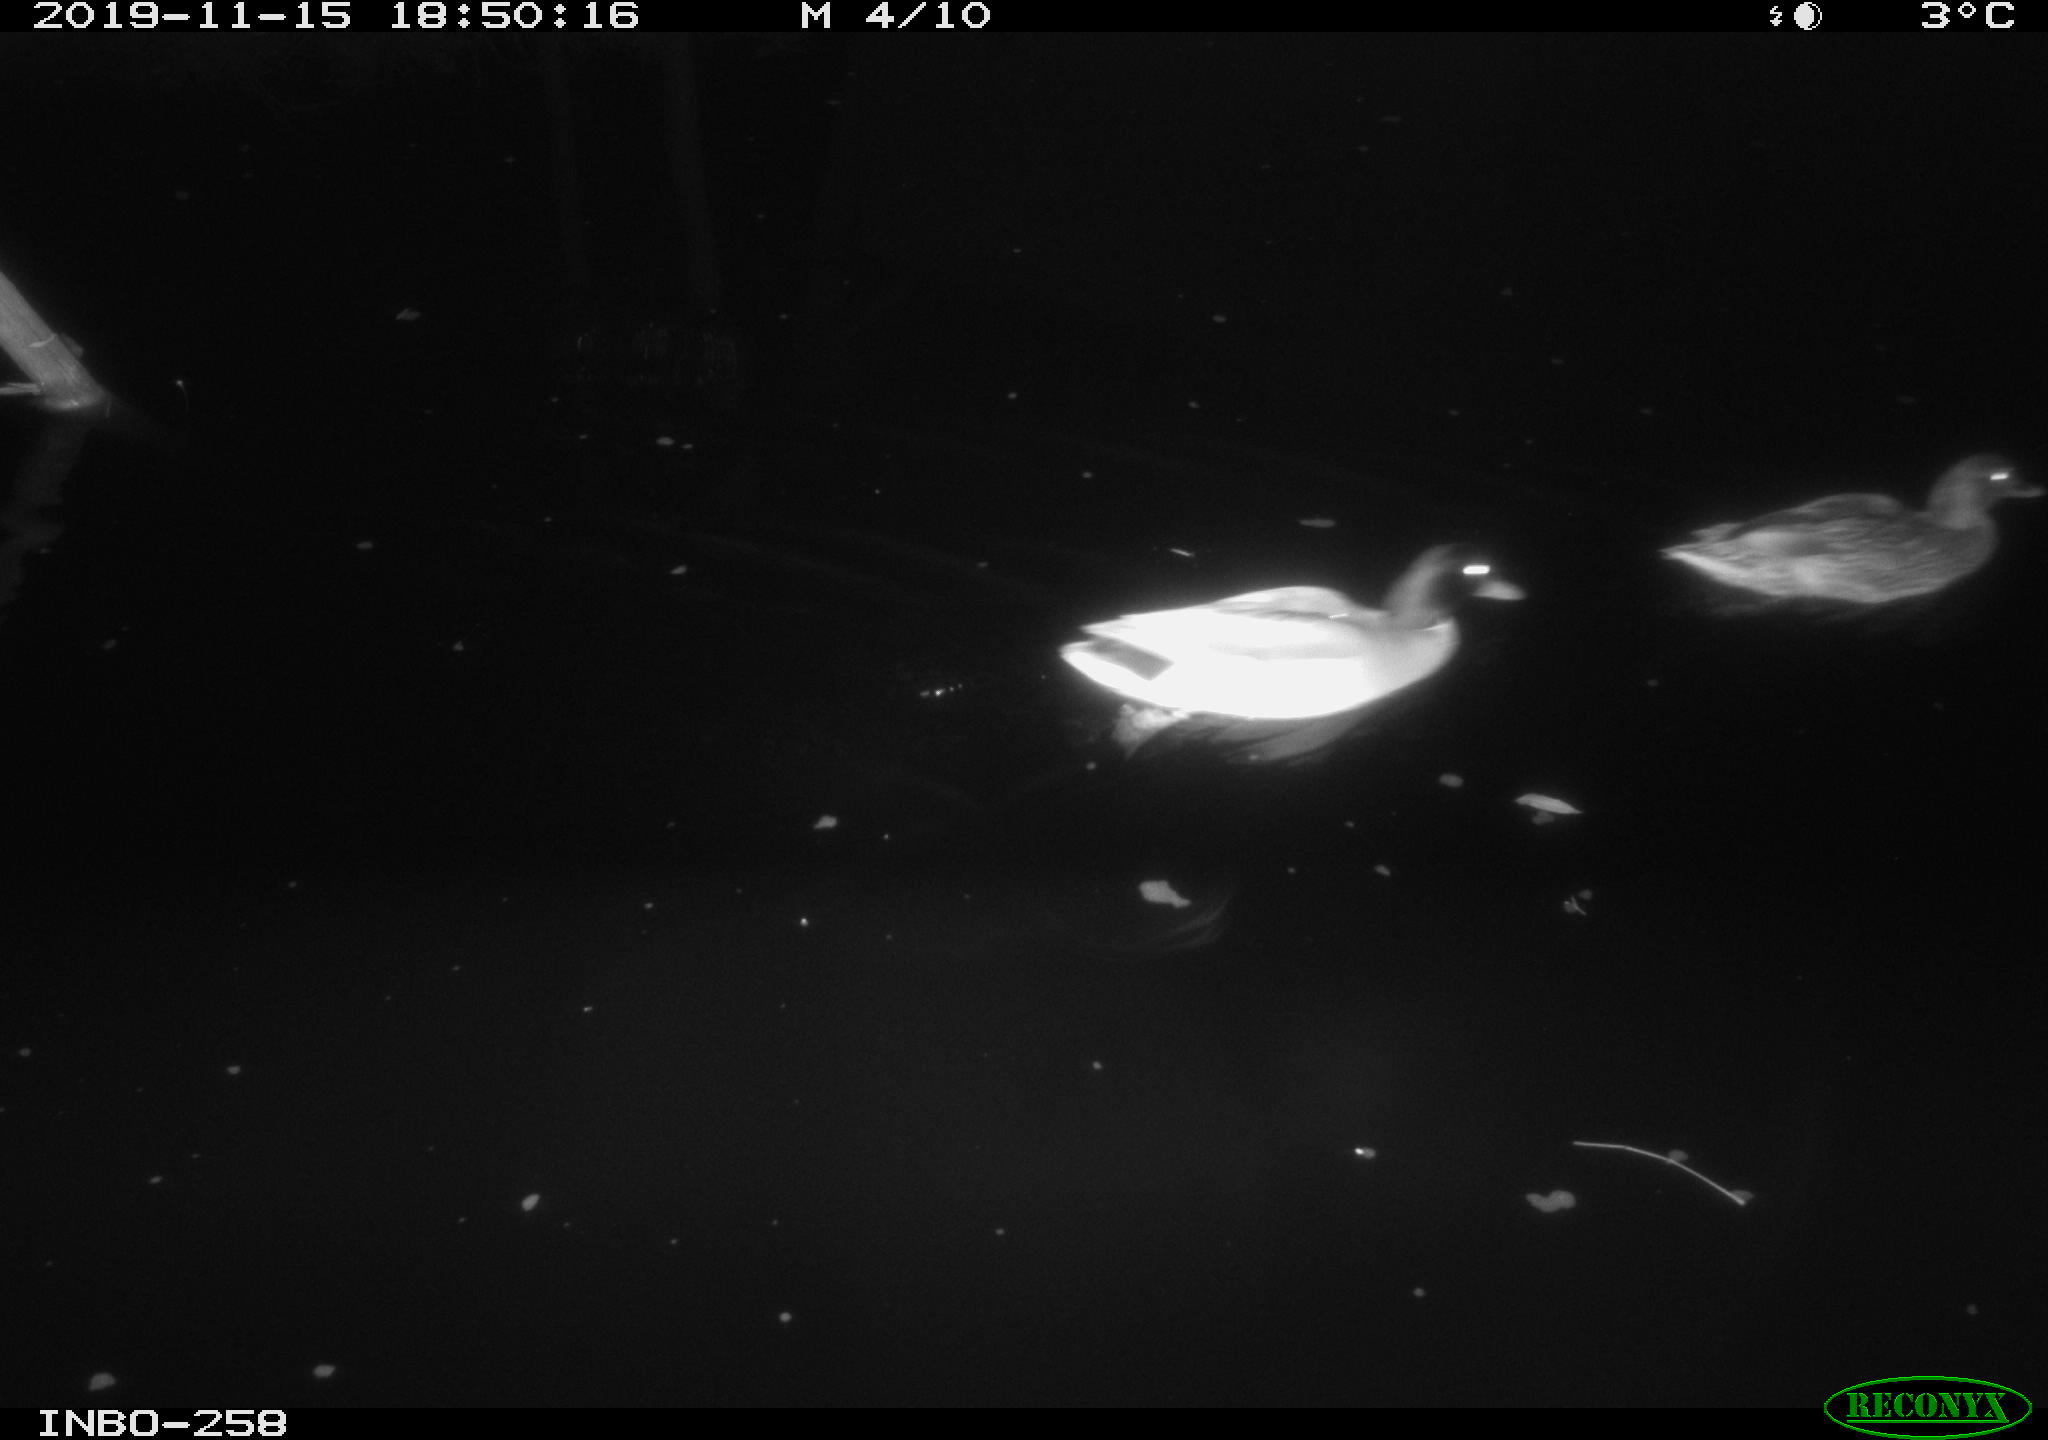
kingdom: Animalia
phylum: Chordata
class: Aves
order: Anseriformes
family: Anatidae
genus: Anas
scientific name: Anas platyrhynchos
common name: Mallard
